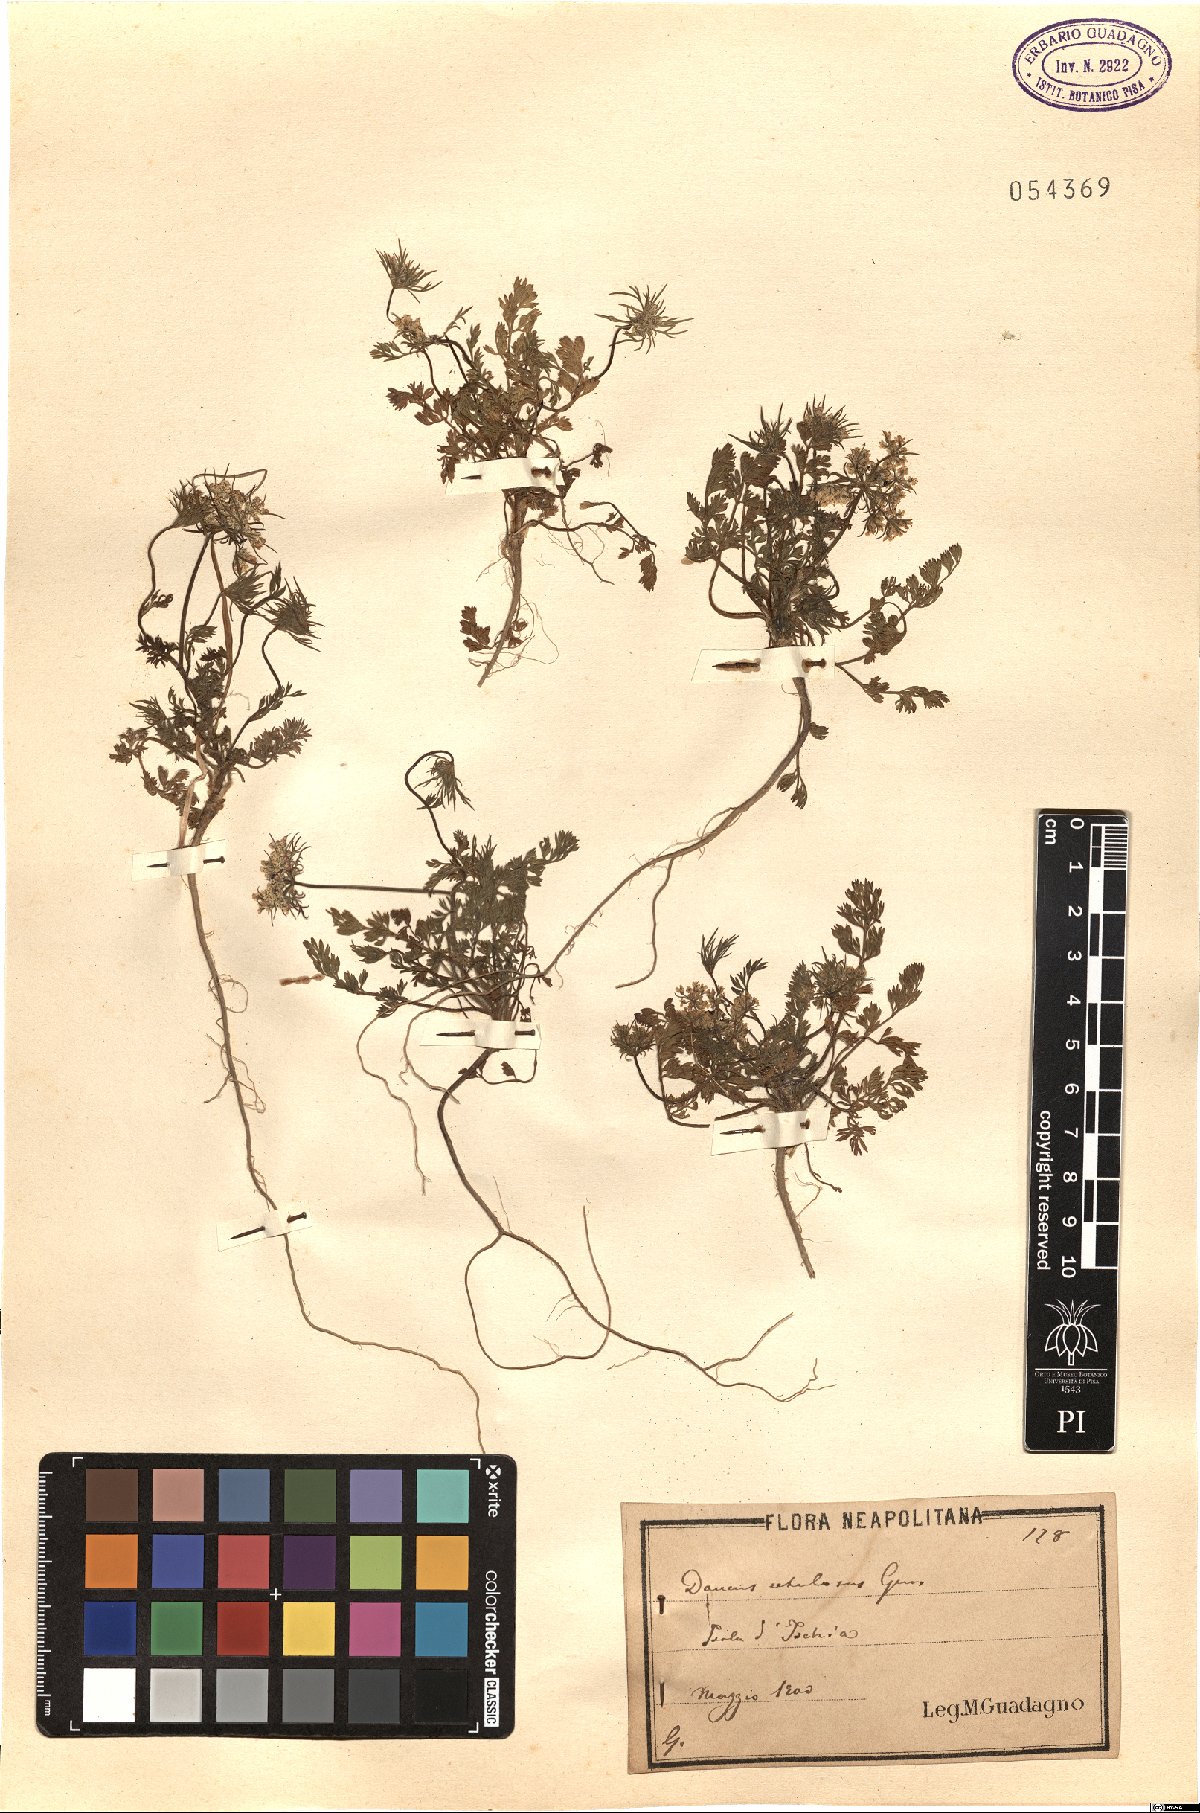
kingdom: Plantae
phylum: Tracheophyta
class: Magnoliopsida
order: Apiales
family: Apiaceae
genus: Daucus
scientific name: Daucus guttatus
